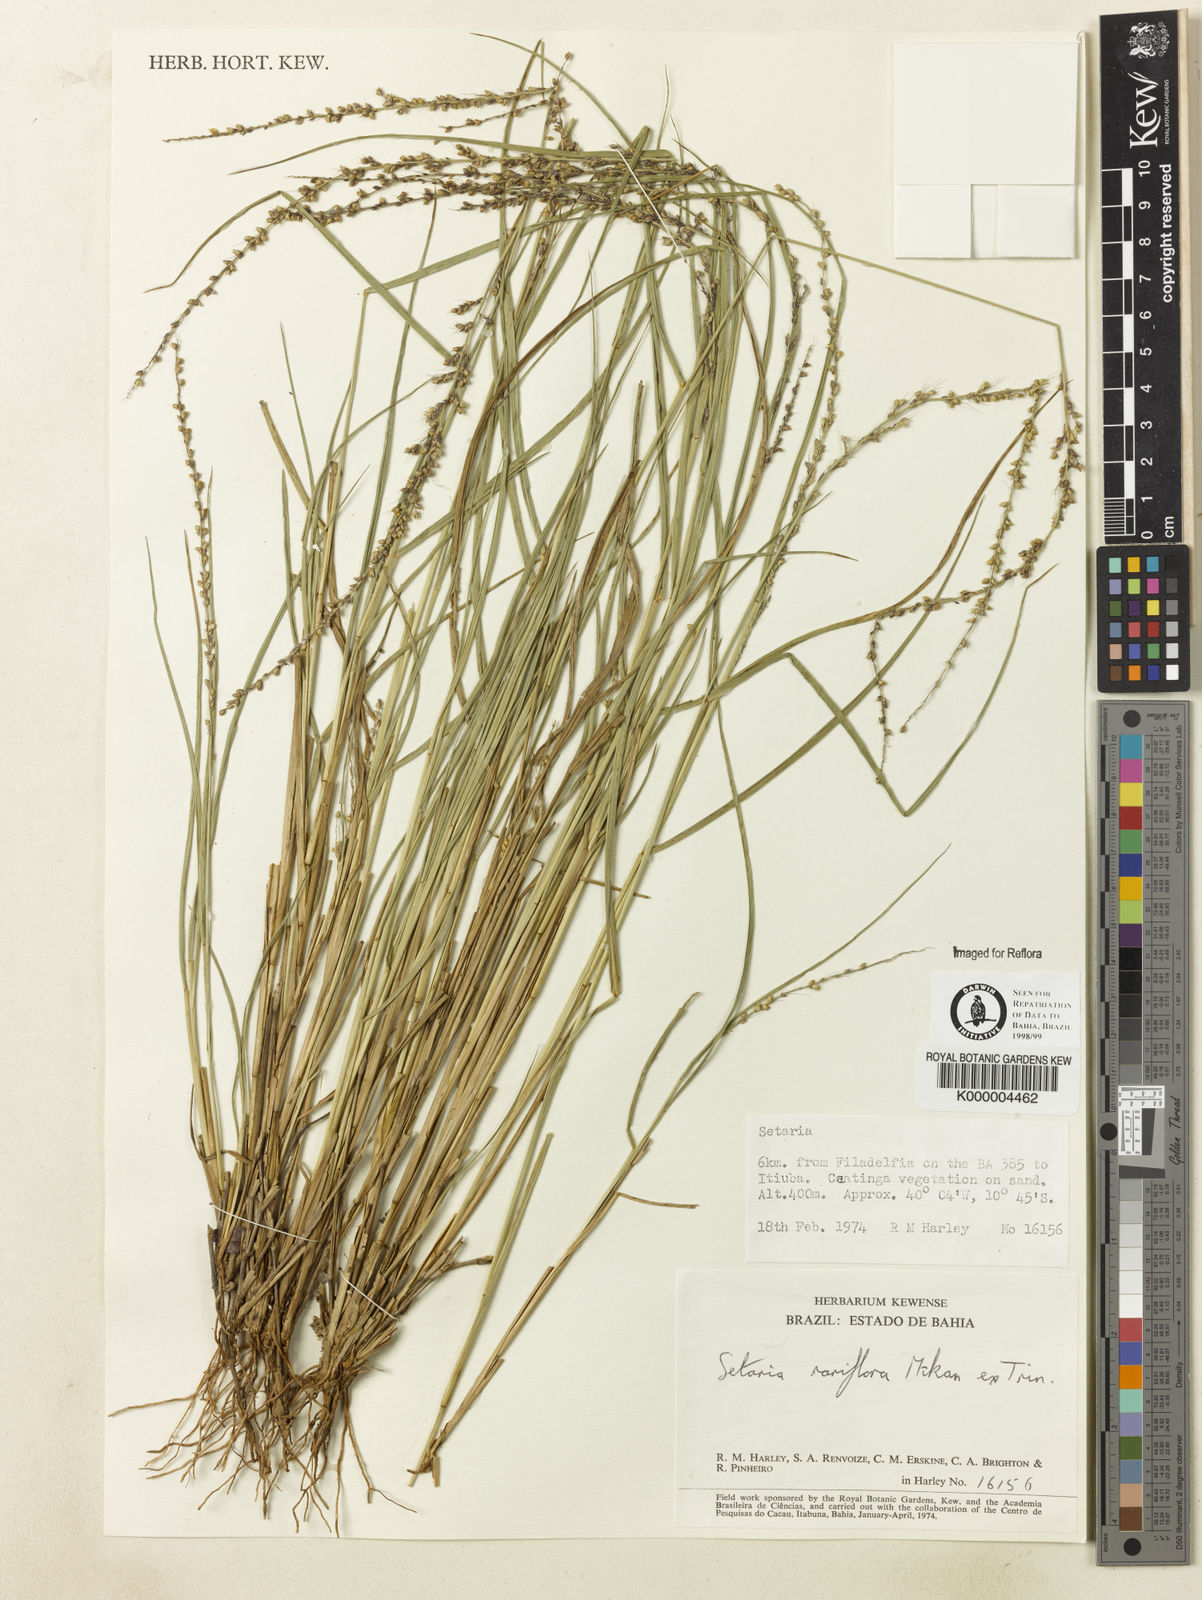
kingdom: Plantae
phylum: Tracheophyta
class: Liliopsida
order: Poales
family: Poaceae
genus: Setaria
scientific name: Setaria setosa
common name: West indies bristle grass
